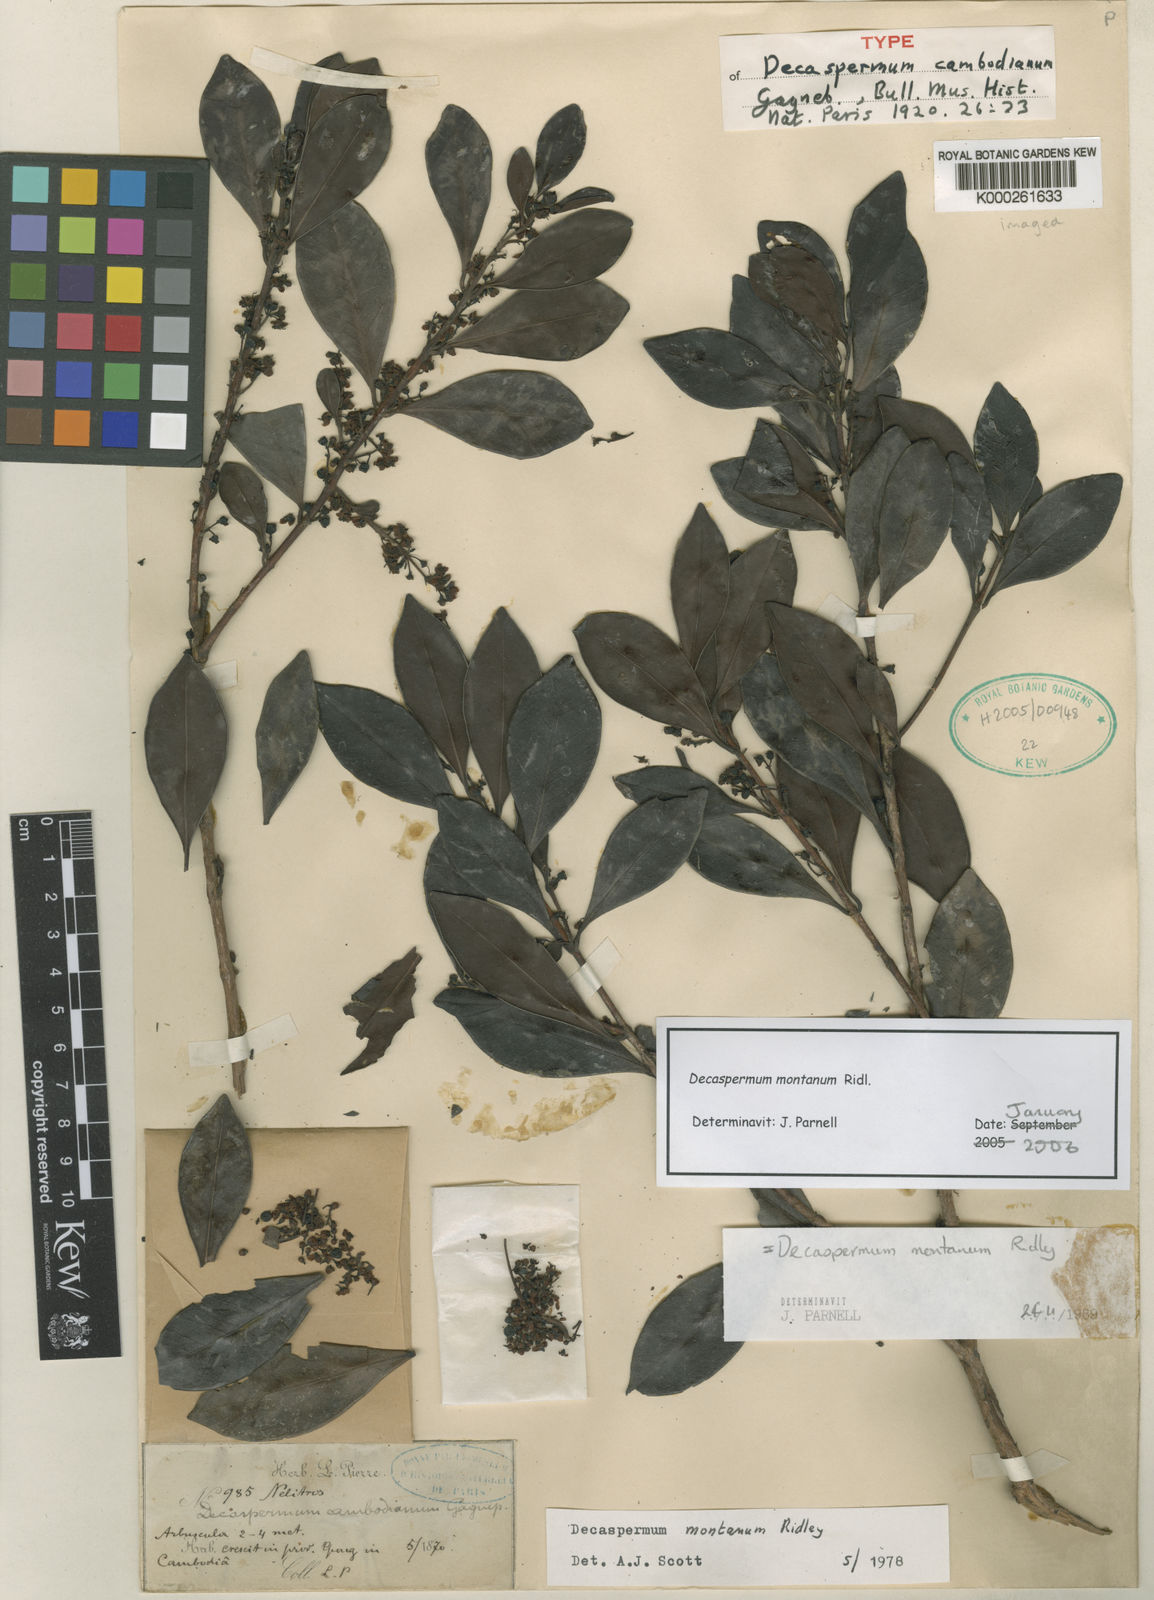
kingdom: Plantae
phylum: Tracheophyta
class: Magnoliopsida
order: Myrtales
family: Myrtaceae
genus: Decaspermum
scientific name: Decaspermum montanum
